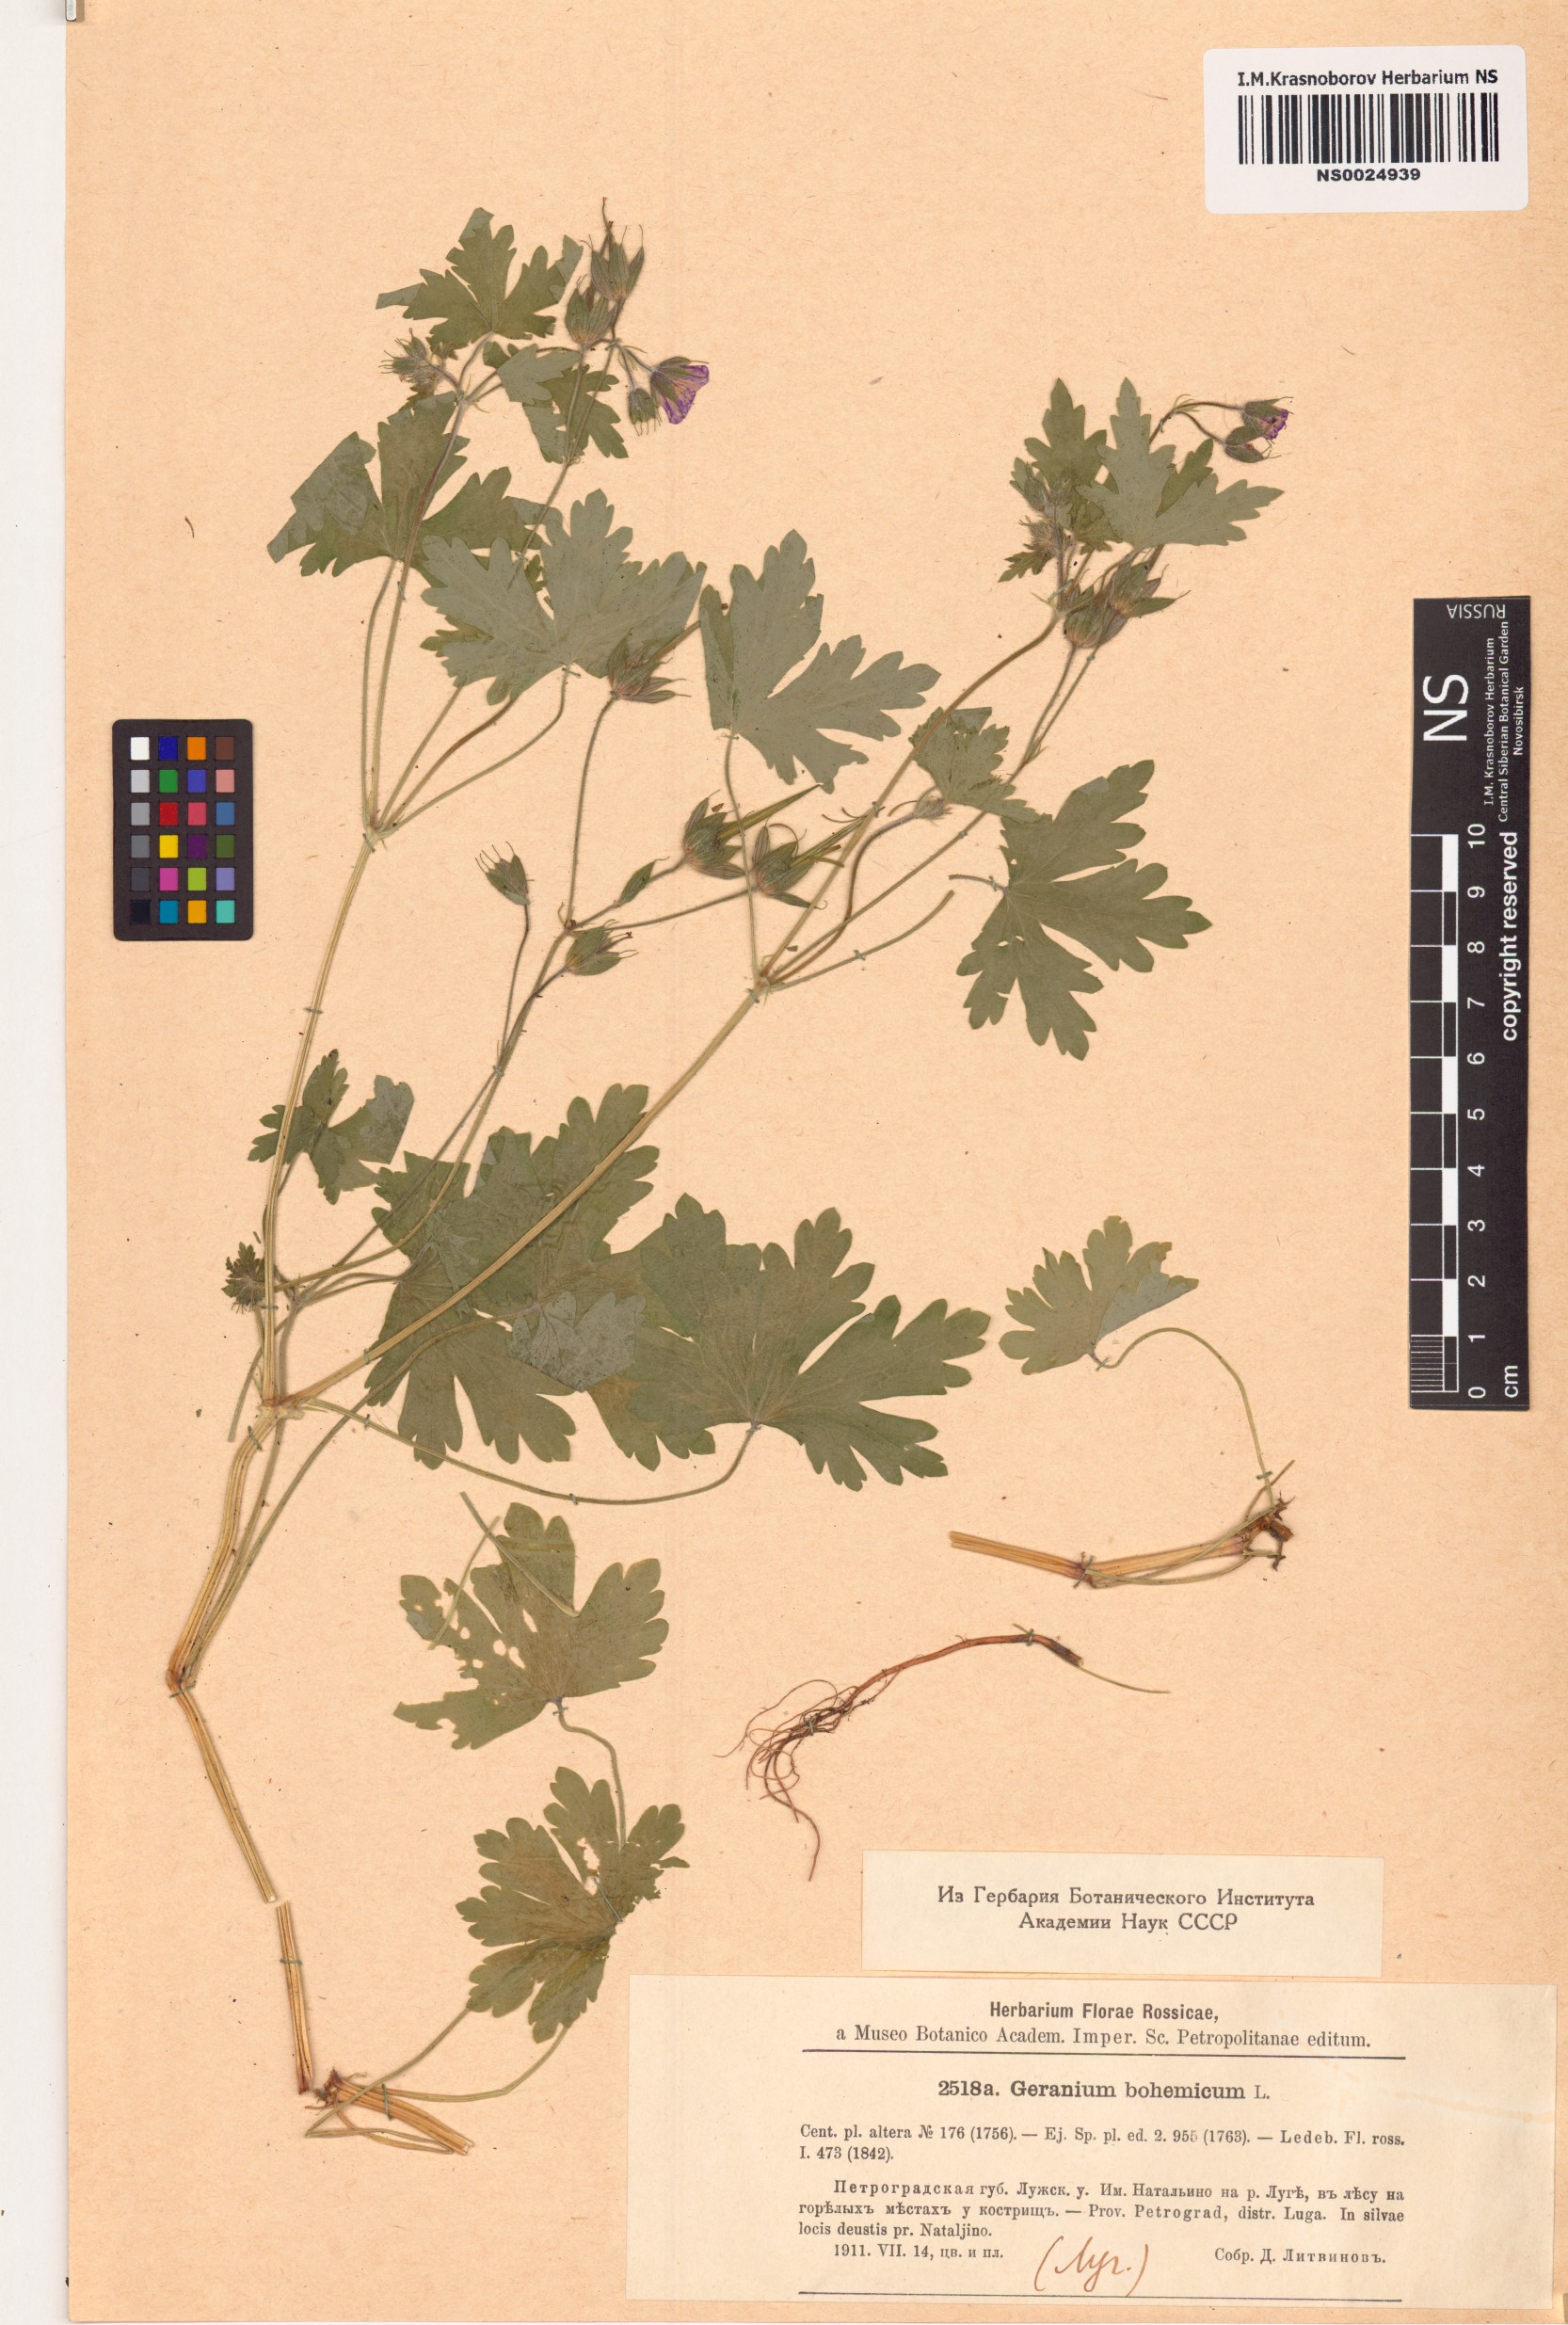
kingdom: Plantae
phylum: Tracheophyta
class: Magnoliopsida
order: Geraniales
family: Geraniaceae
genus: Geranium
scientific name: Geranium bohemicum
